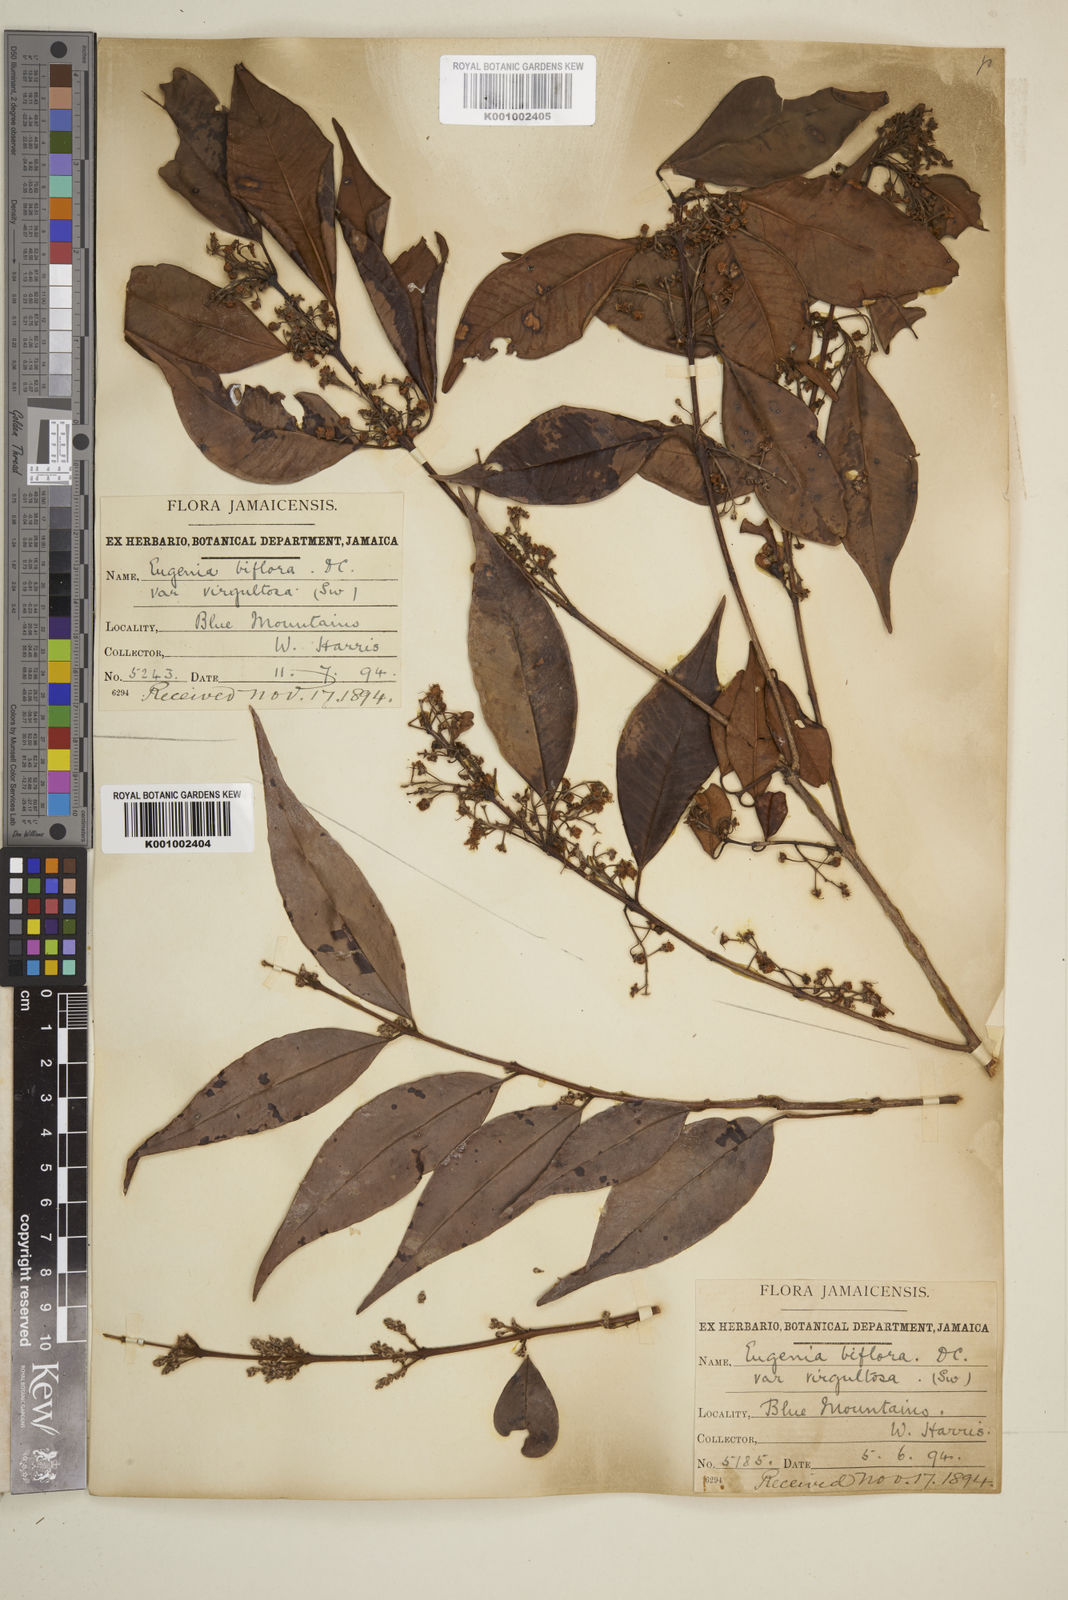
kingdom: Plantae
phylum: Tracheophyta
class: Magnoliopsida
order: Myrtales
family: Myrtaceae
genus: Eugenia
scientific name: Eugenia biflora
